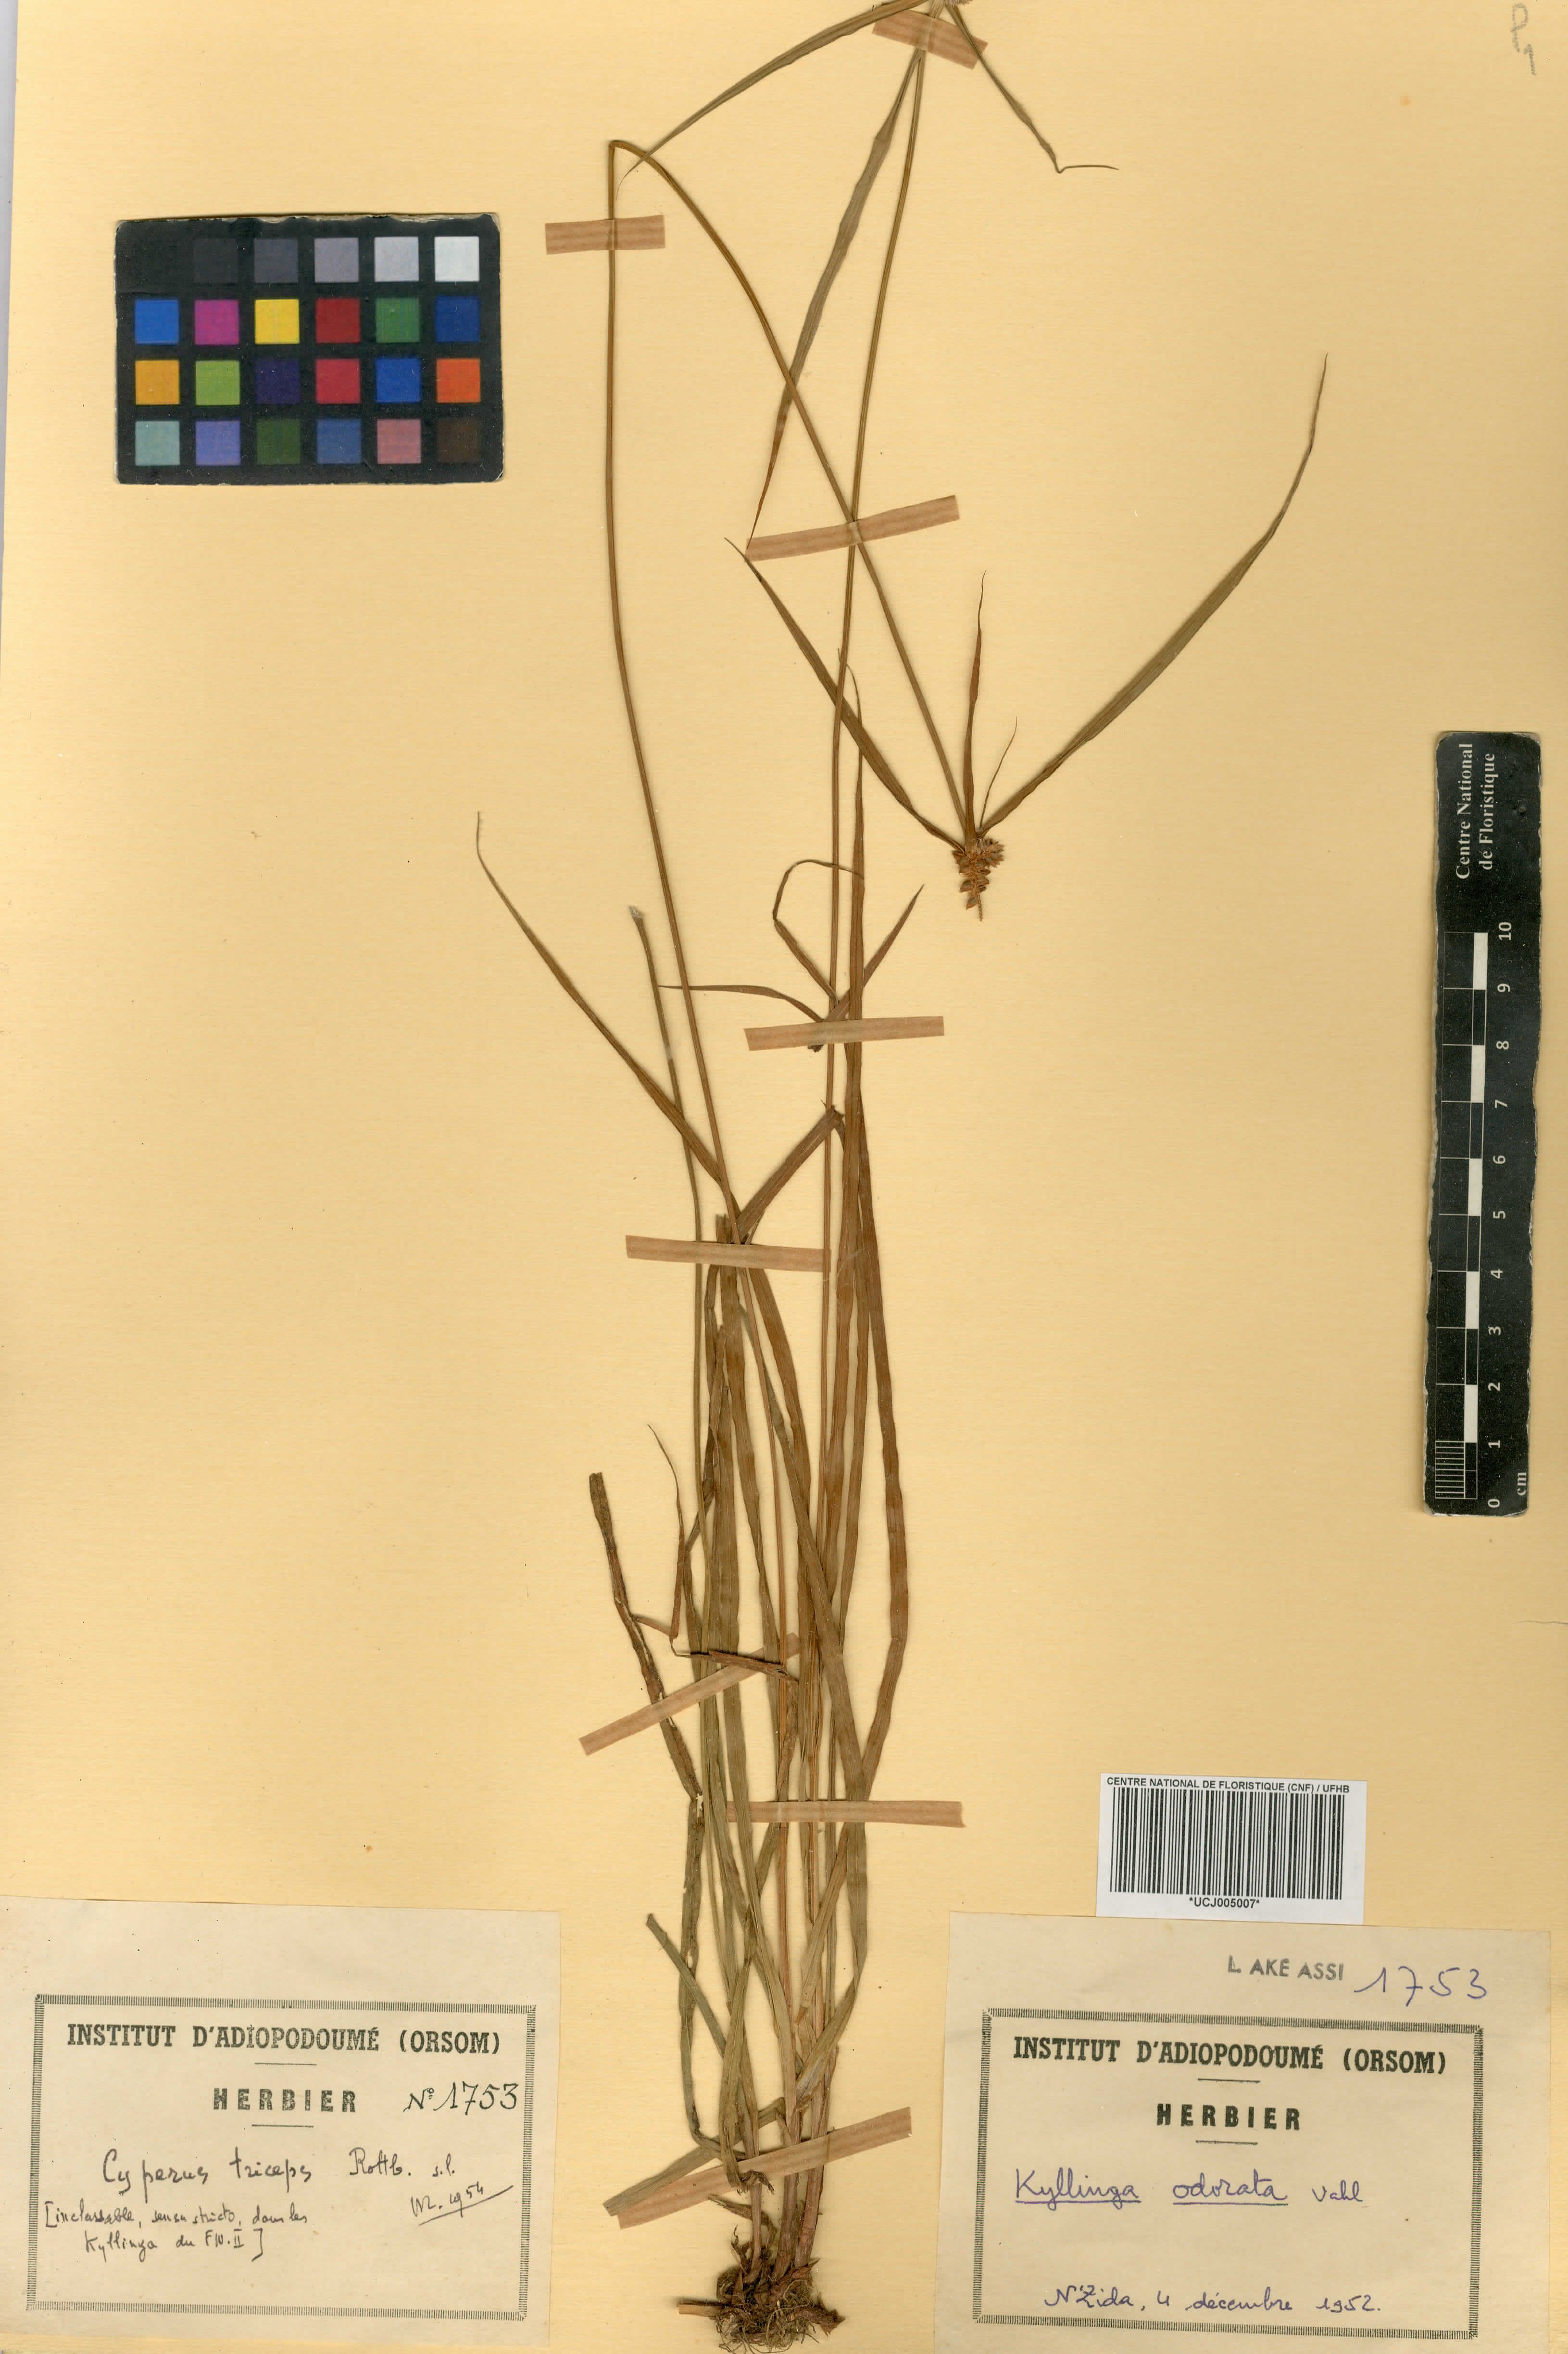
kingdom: Plantae
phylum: Tracheophyta
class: Liliopsida
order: Poales
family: Cyperaceae
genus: Cyperus
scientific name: Cyperus sesquiflorus
